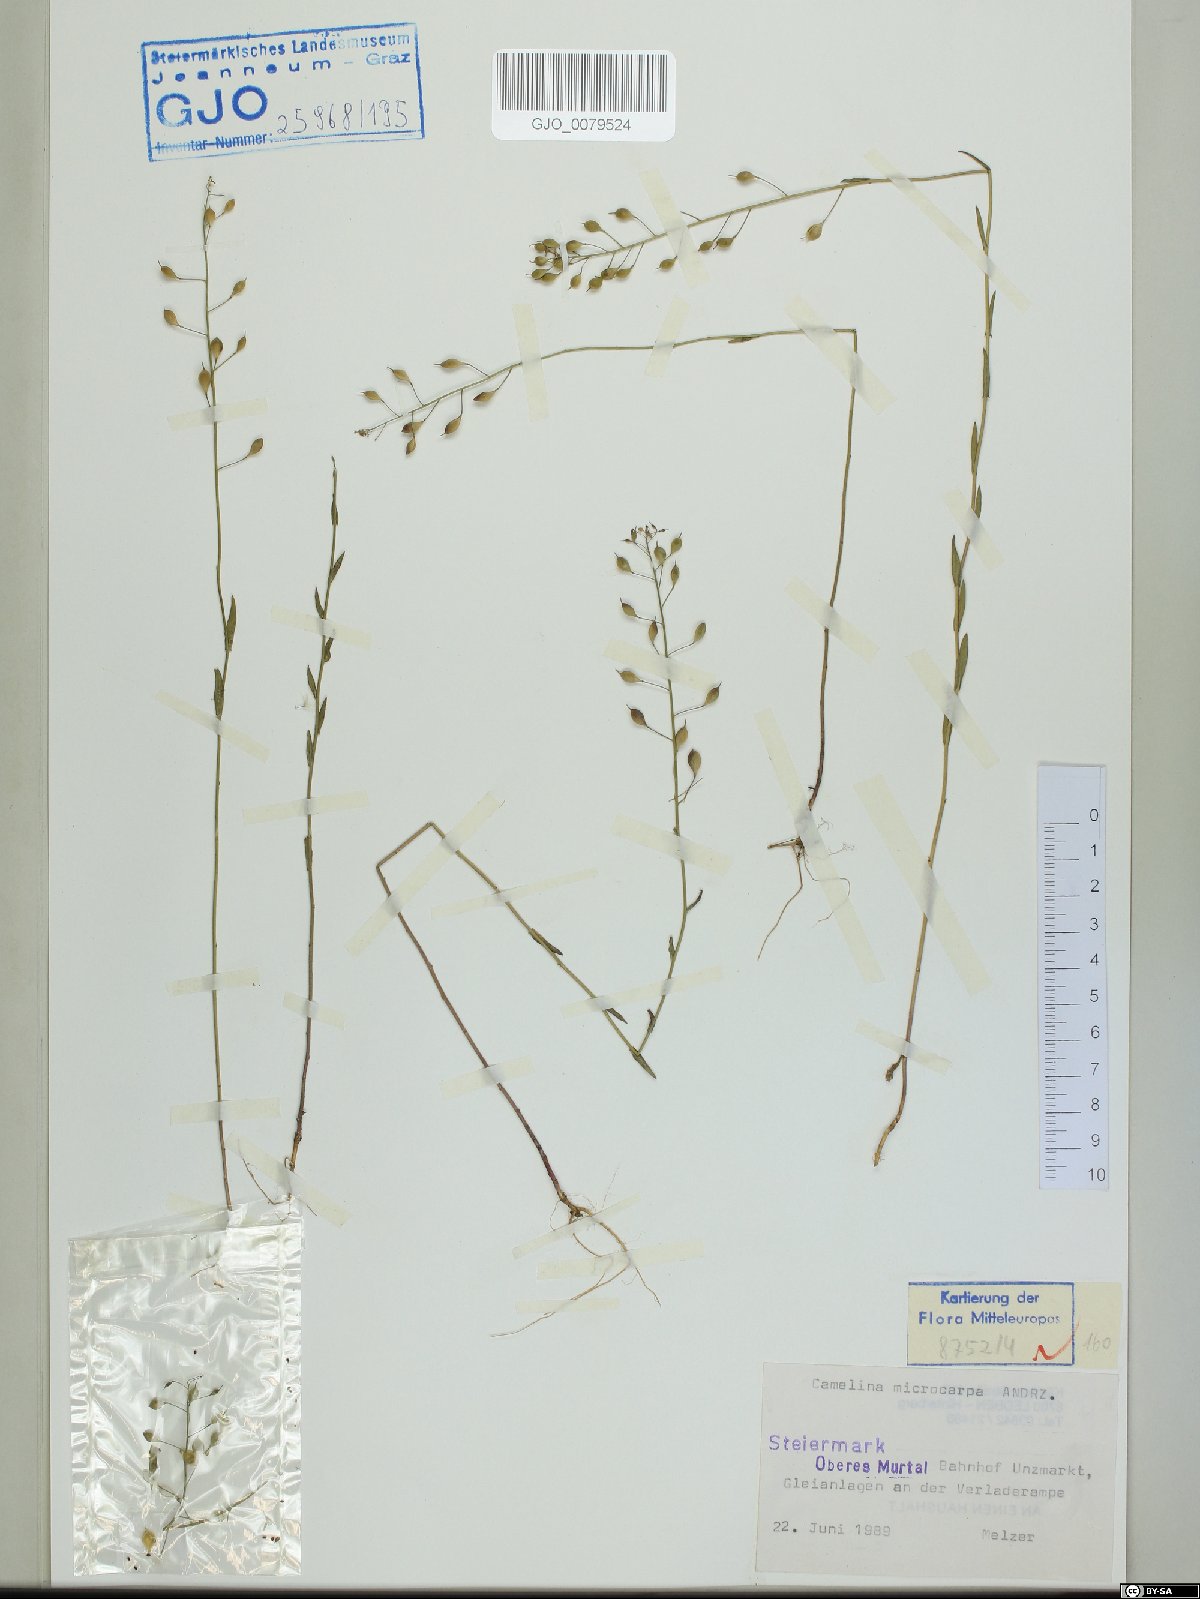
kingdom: Plantae
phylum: Tracheophyta
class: Magnoliopsida
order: Brassicales
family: Brassicaceae
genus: Camelina
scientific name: Camelina microcarpa
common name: Lesser gold-of-pleasure
